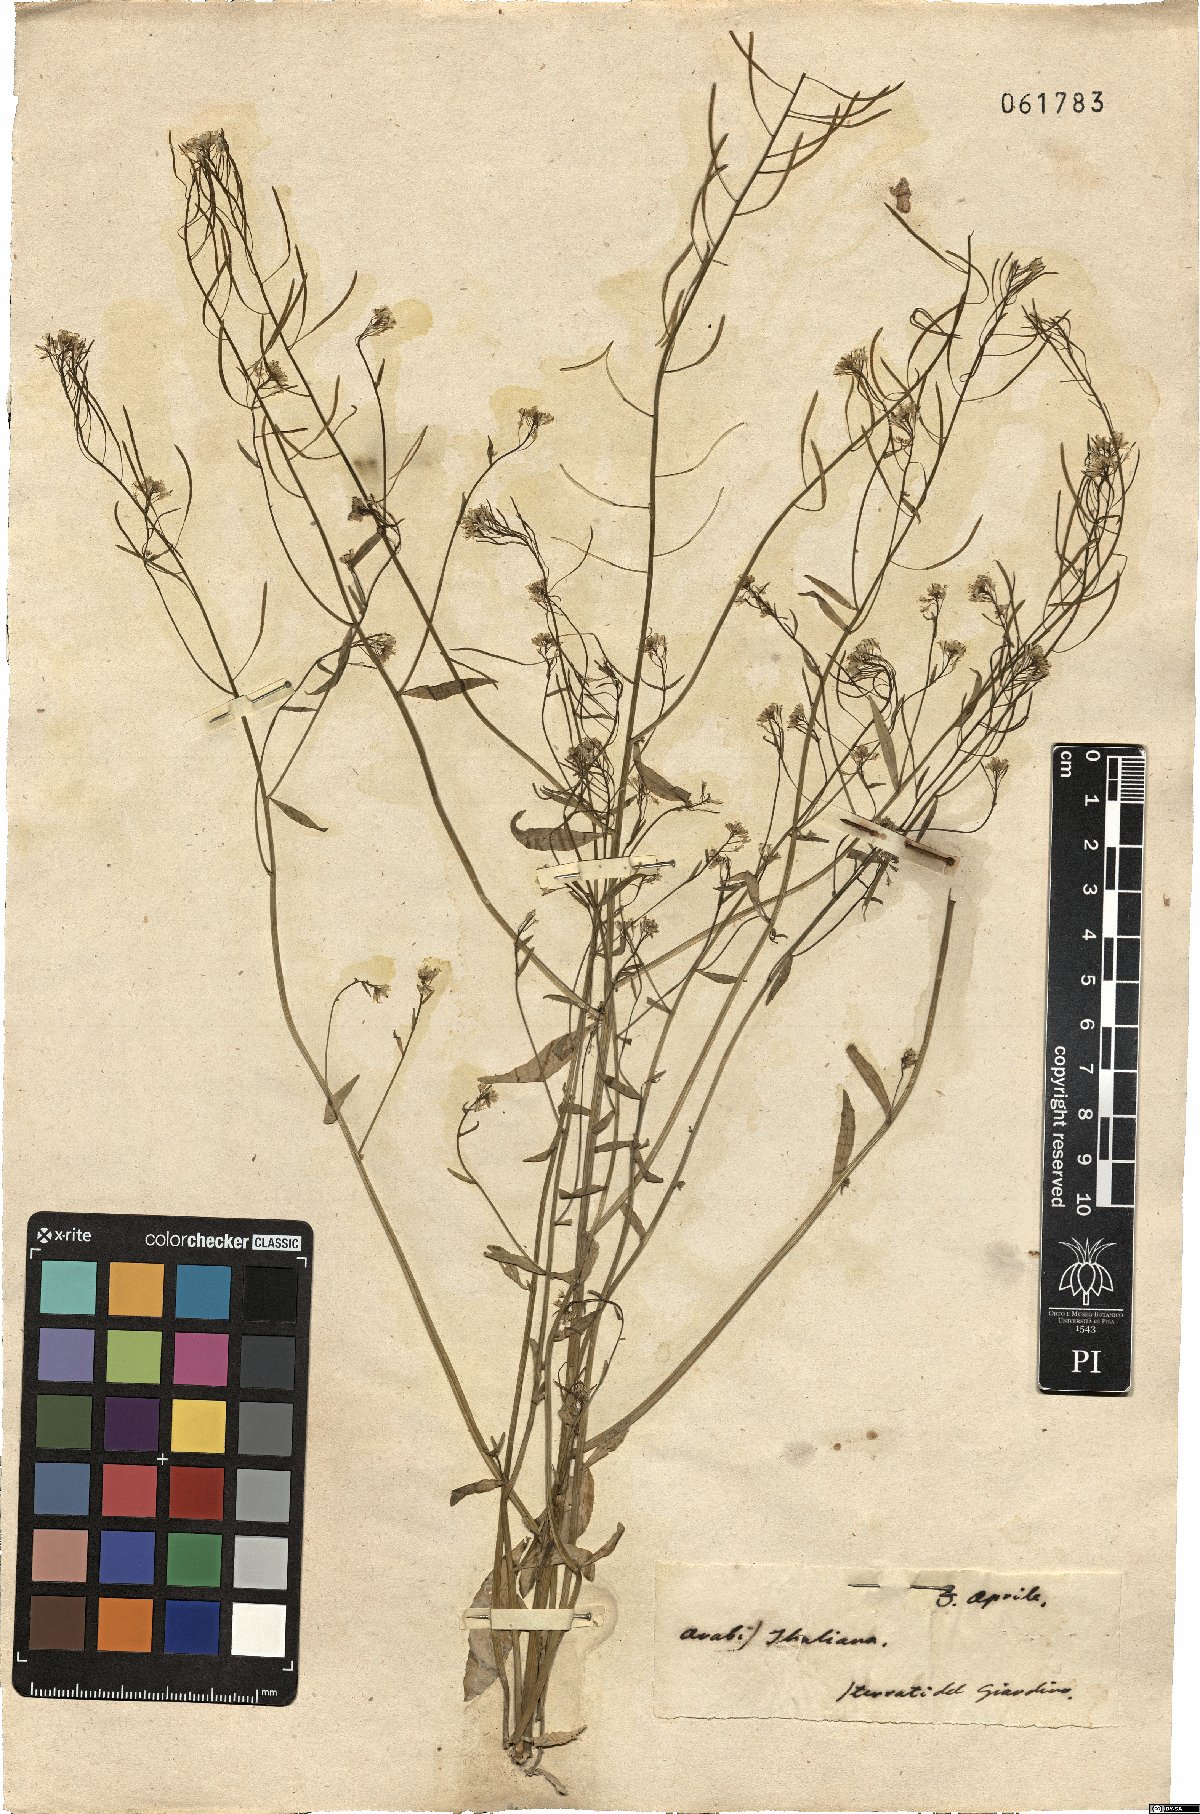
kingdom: Plantae
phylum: Tracheophyta
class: Magnoliopsida
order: Brassicales
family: Brassicaceae
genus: Arabidopsis
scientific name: Arabidopsis thaliana
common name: Thale cress
